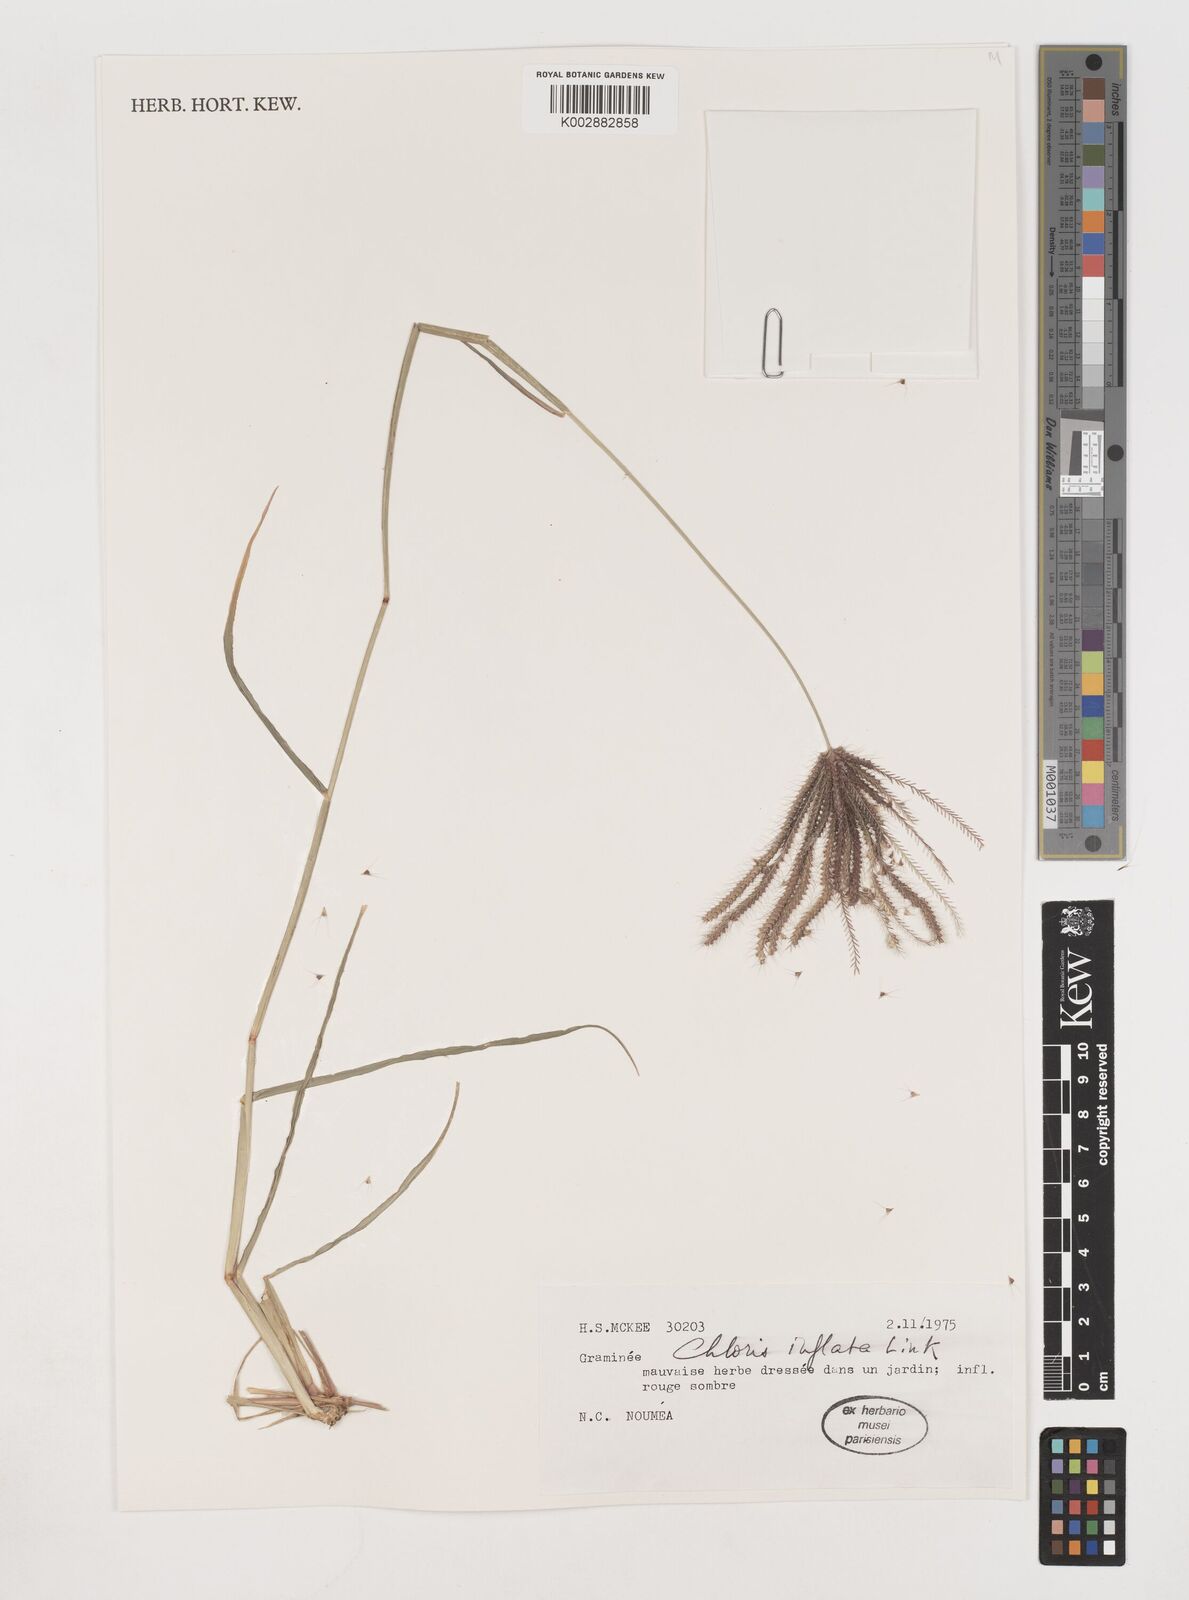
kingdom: Plantae
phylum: Tracheophyta
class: Liliopsida
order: Poales
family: Poaceae
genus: Chloris
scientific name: Chloris barbata
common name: Swollen fingergrass
